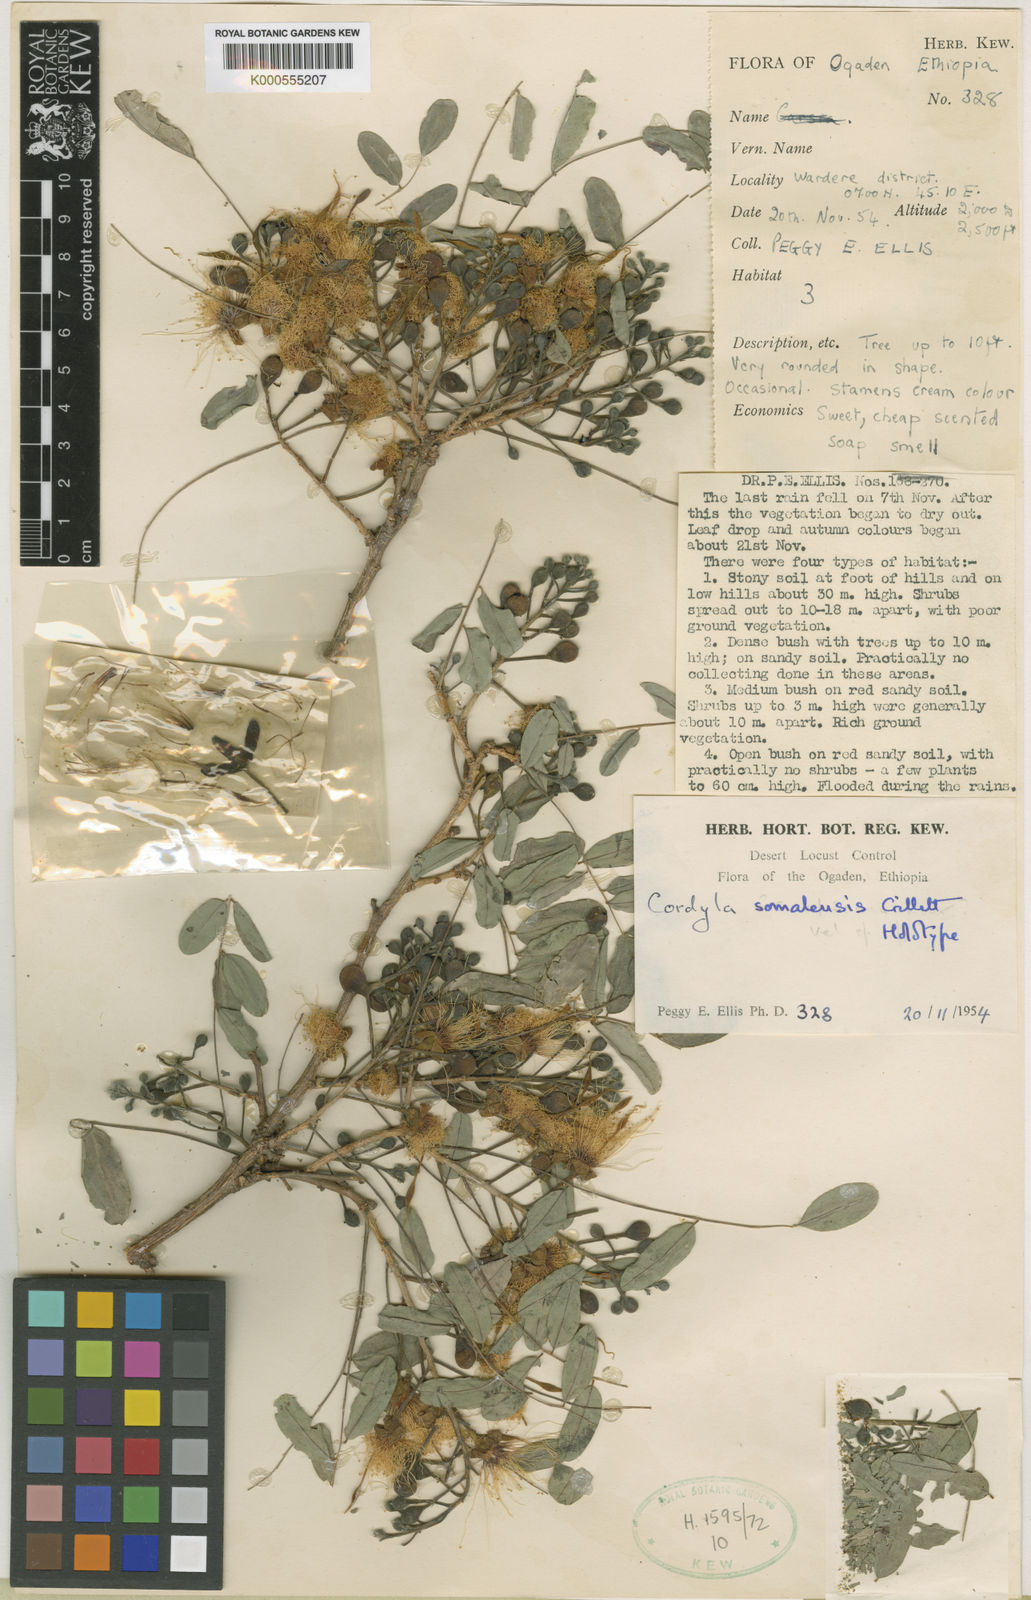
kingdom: Plantae
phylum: Tracheophyta
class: Magnoliopsida
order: Fabales
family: Fabaceae
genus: Cordyla
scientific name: Cordyla somalensis
